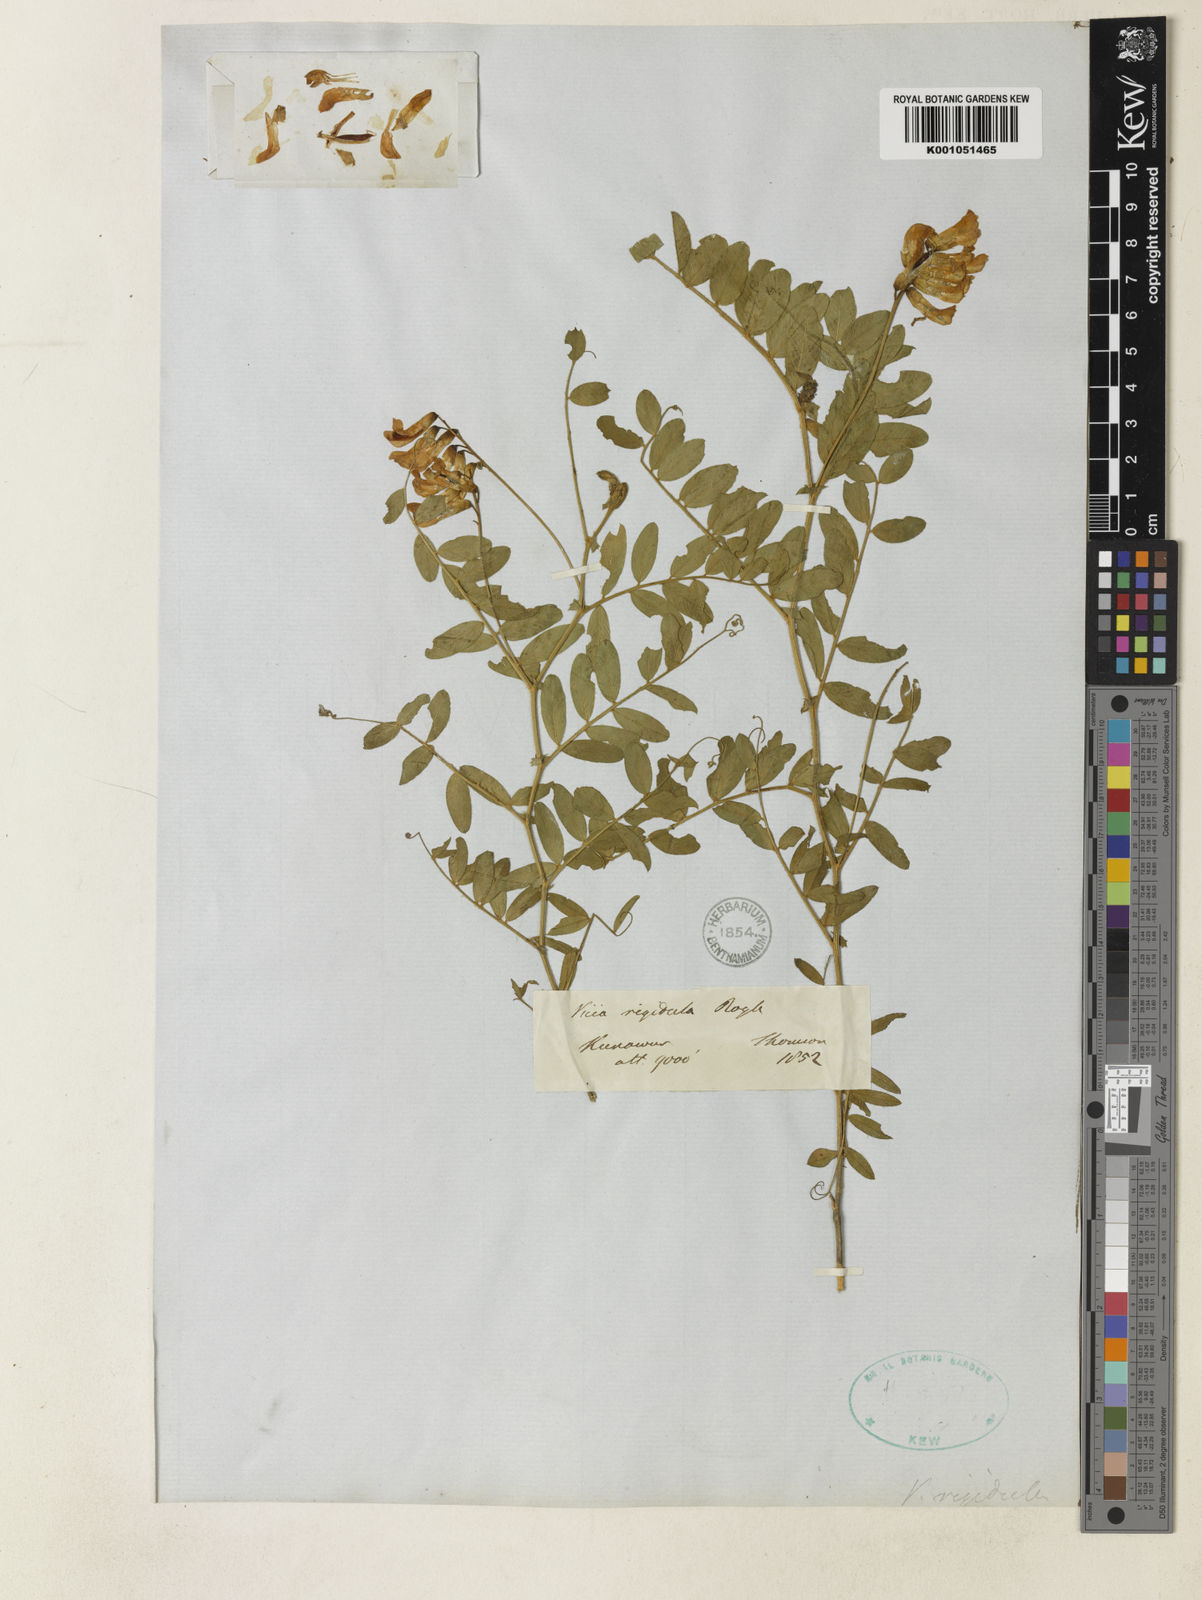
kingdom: Plantae
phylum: Tracheophyta
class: Magnoliopsida
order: Fabales
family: Fabaceae
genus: Vicia
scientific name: Vicia rigidula
